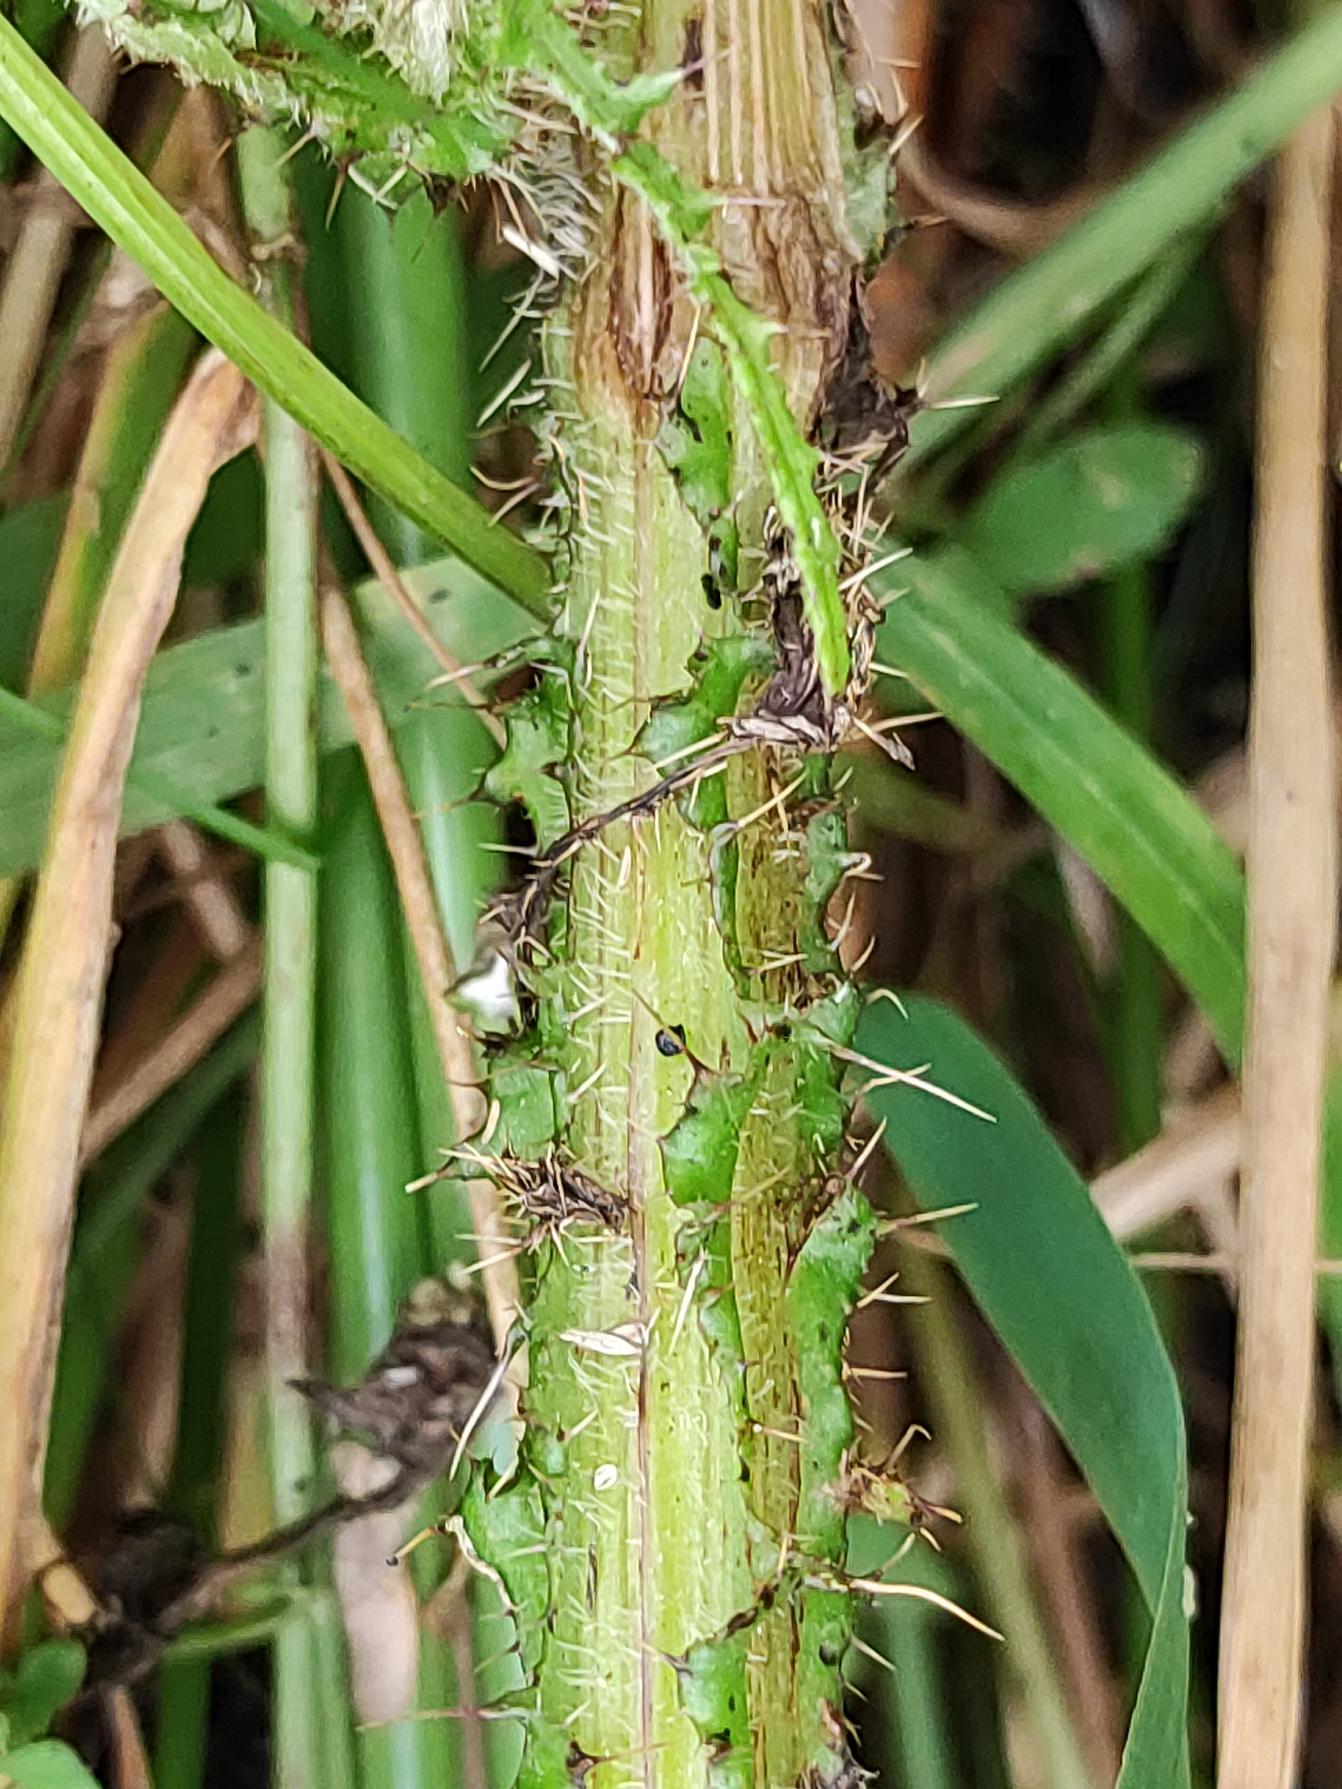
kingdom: Plantae
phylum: Tracheophyta
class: Magnoliopsida
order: Asterales
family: Asteraceae
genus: Cirsium
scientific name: Cirsium palustre
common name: Kær-tidsel
